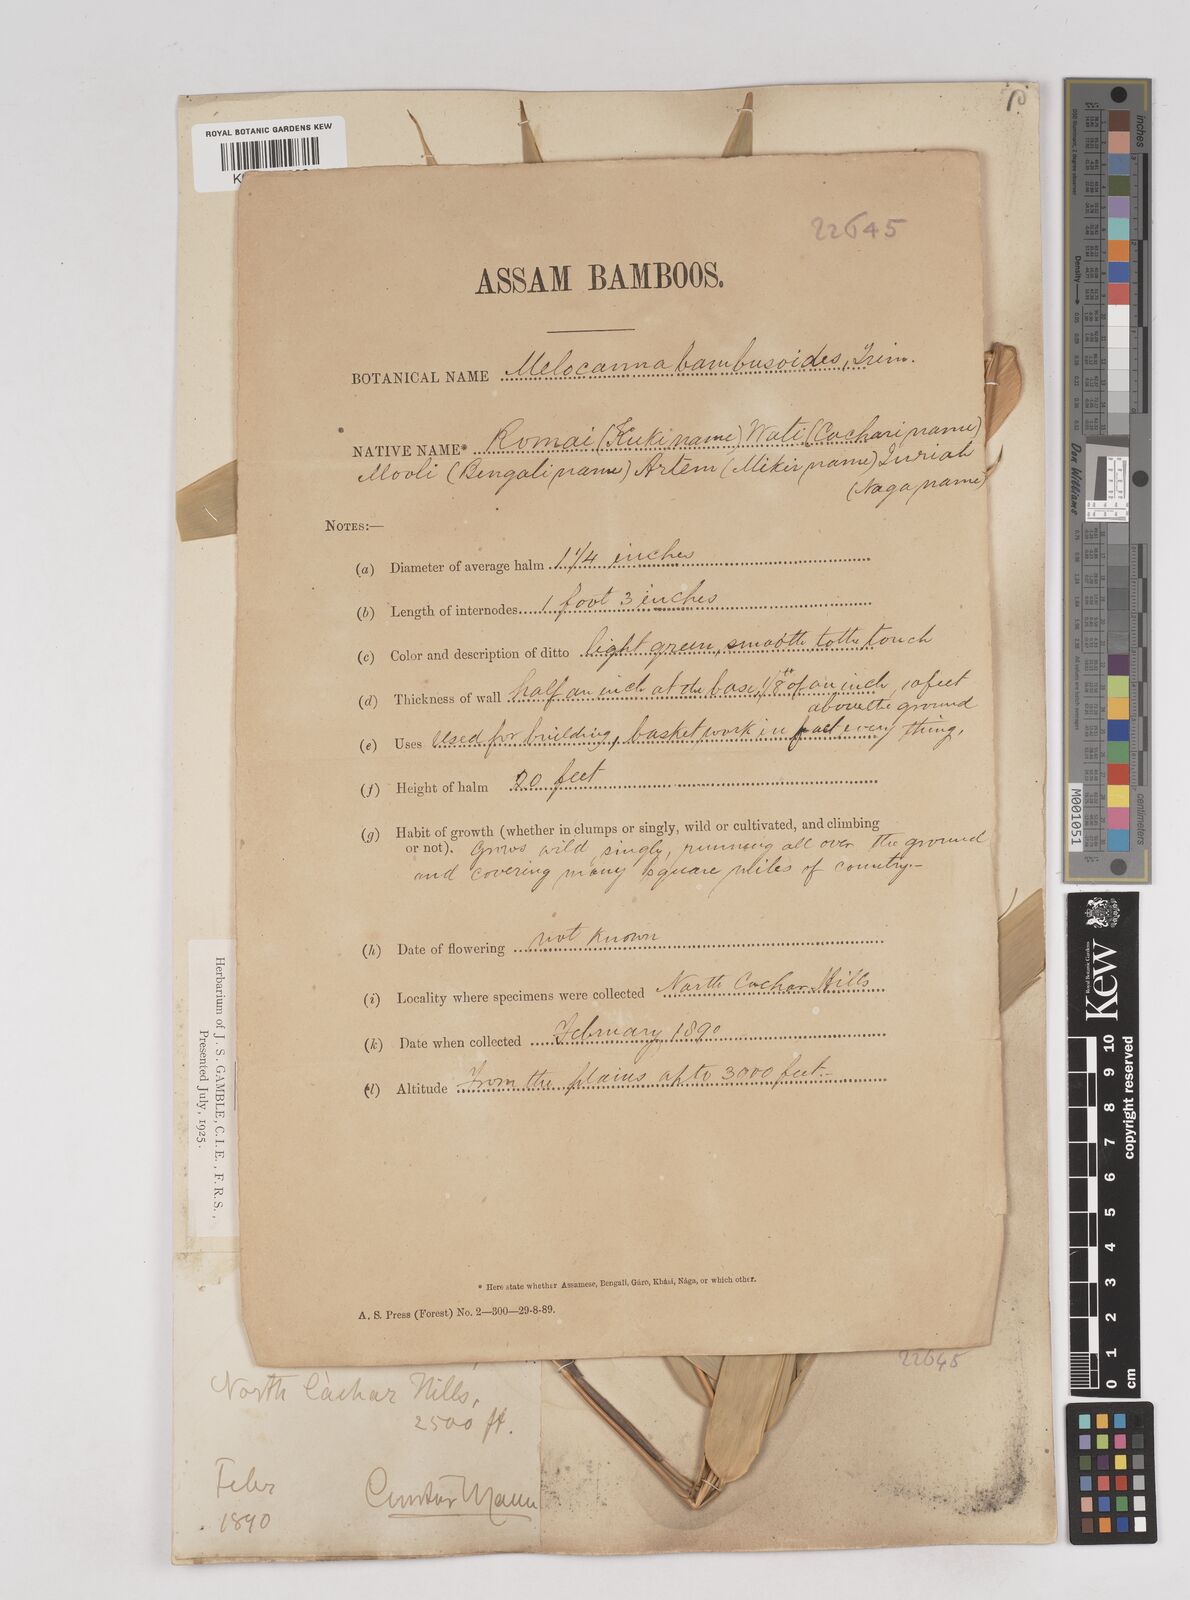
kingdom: Plantae
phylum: Tracheophyta
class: Liliopsida
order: Poales
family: Poaceae
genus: Melocanna
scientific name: Melocanna baccifera
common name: Berry bamboo
